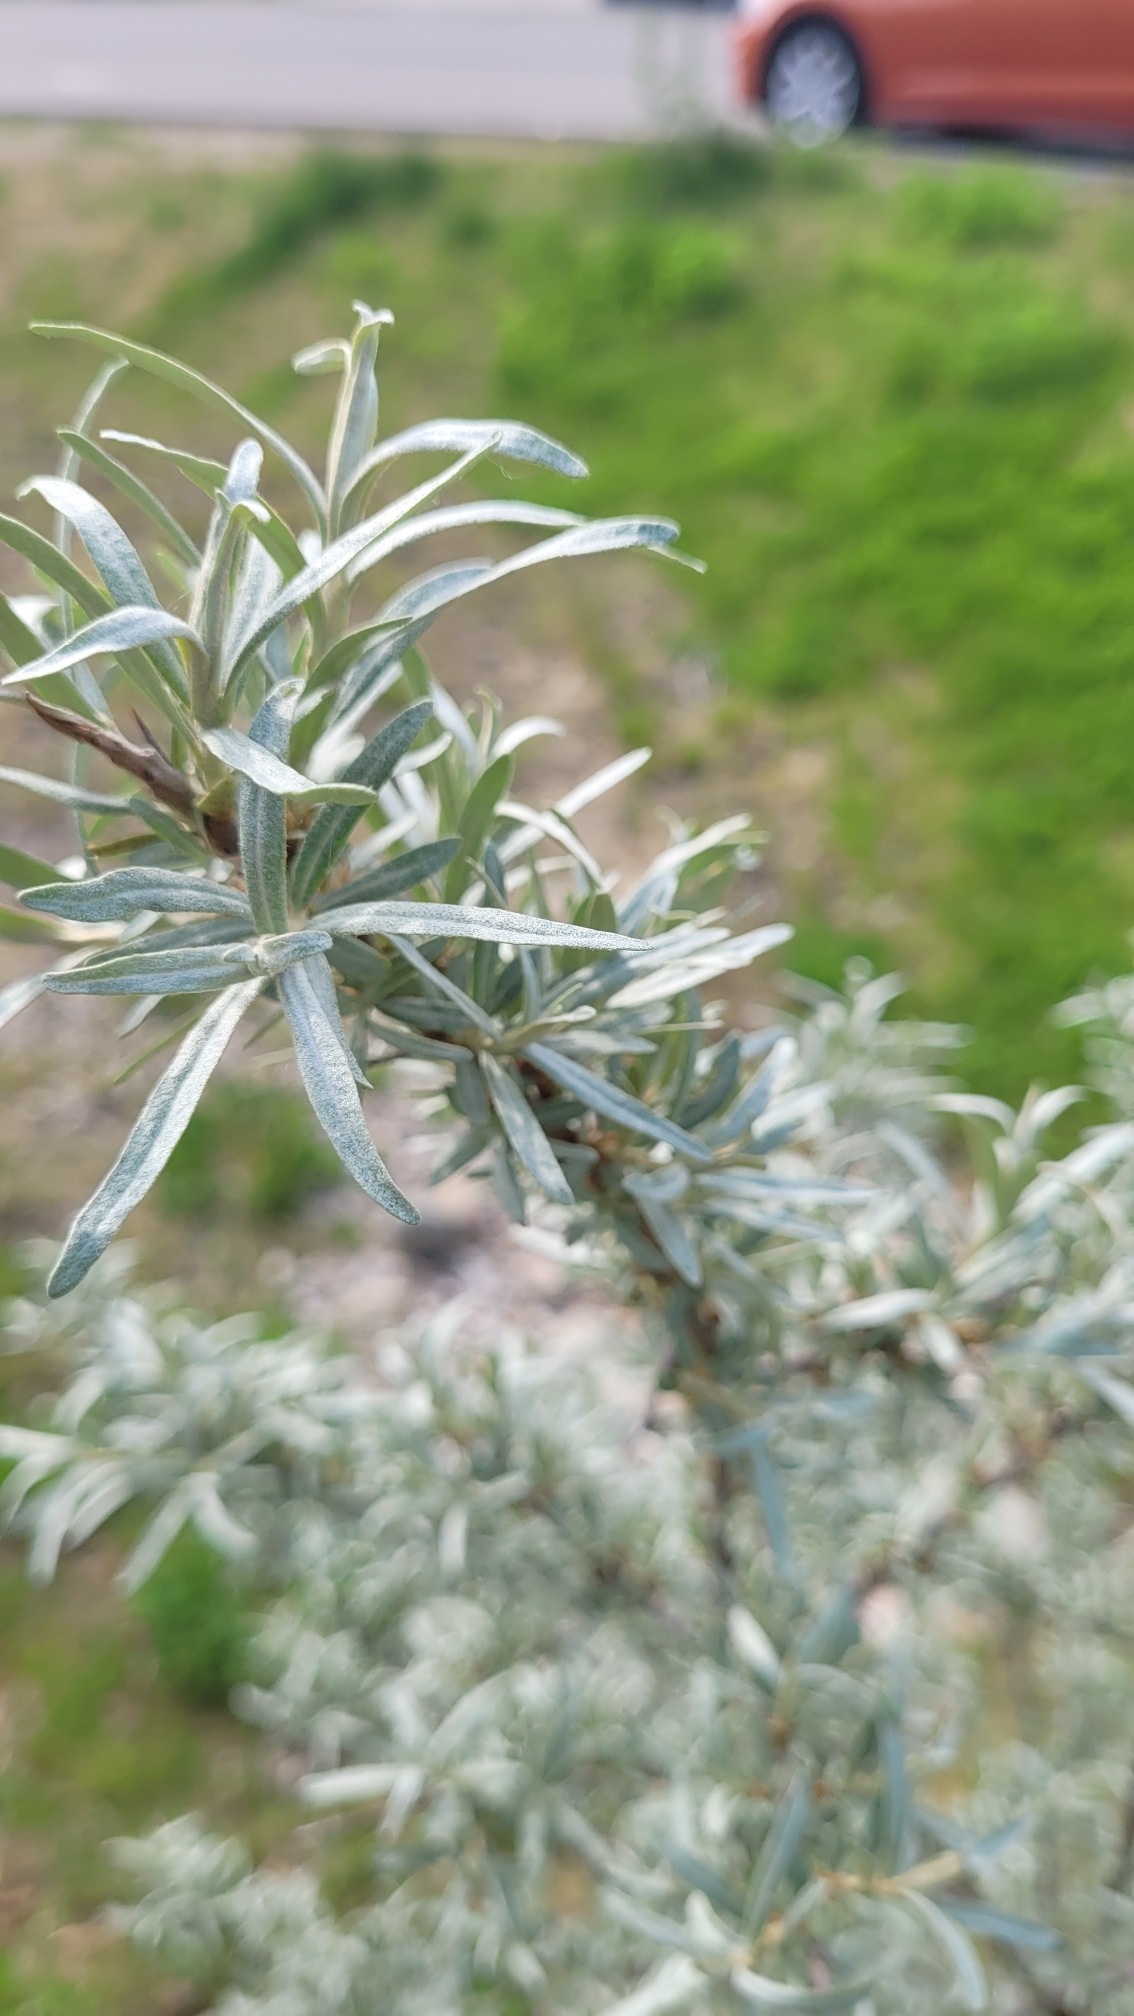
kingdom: Plantae
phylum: Tracheophyta
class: Magnoliopsida
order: Rosales
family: Elaeagnaceae
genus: Hippophae
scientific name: Hippophae rhamnoides
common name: Havtorn
